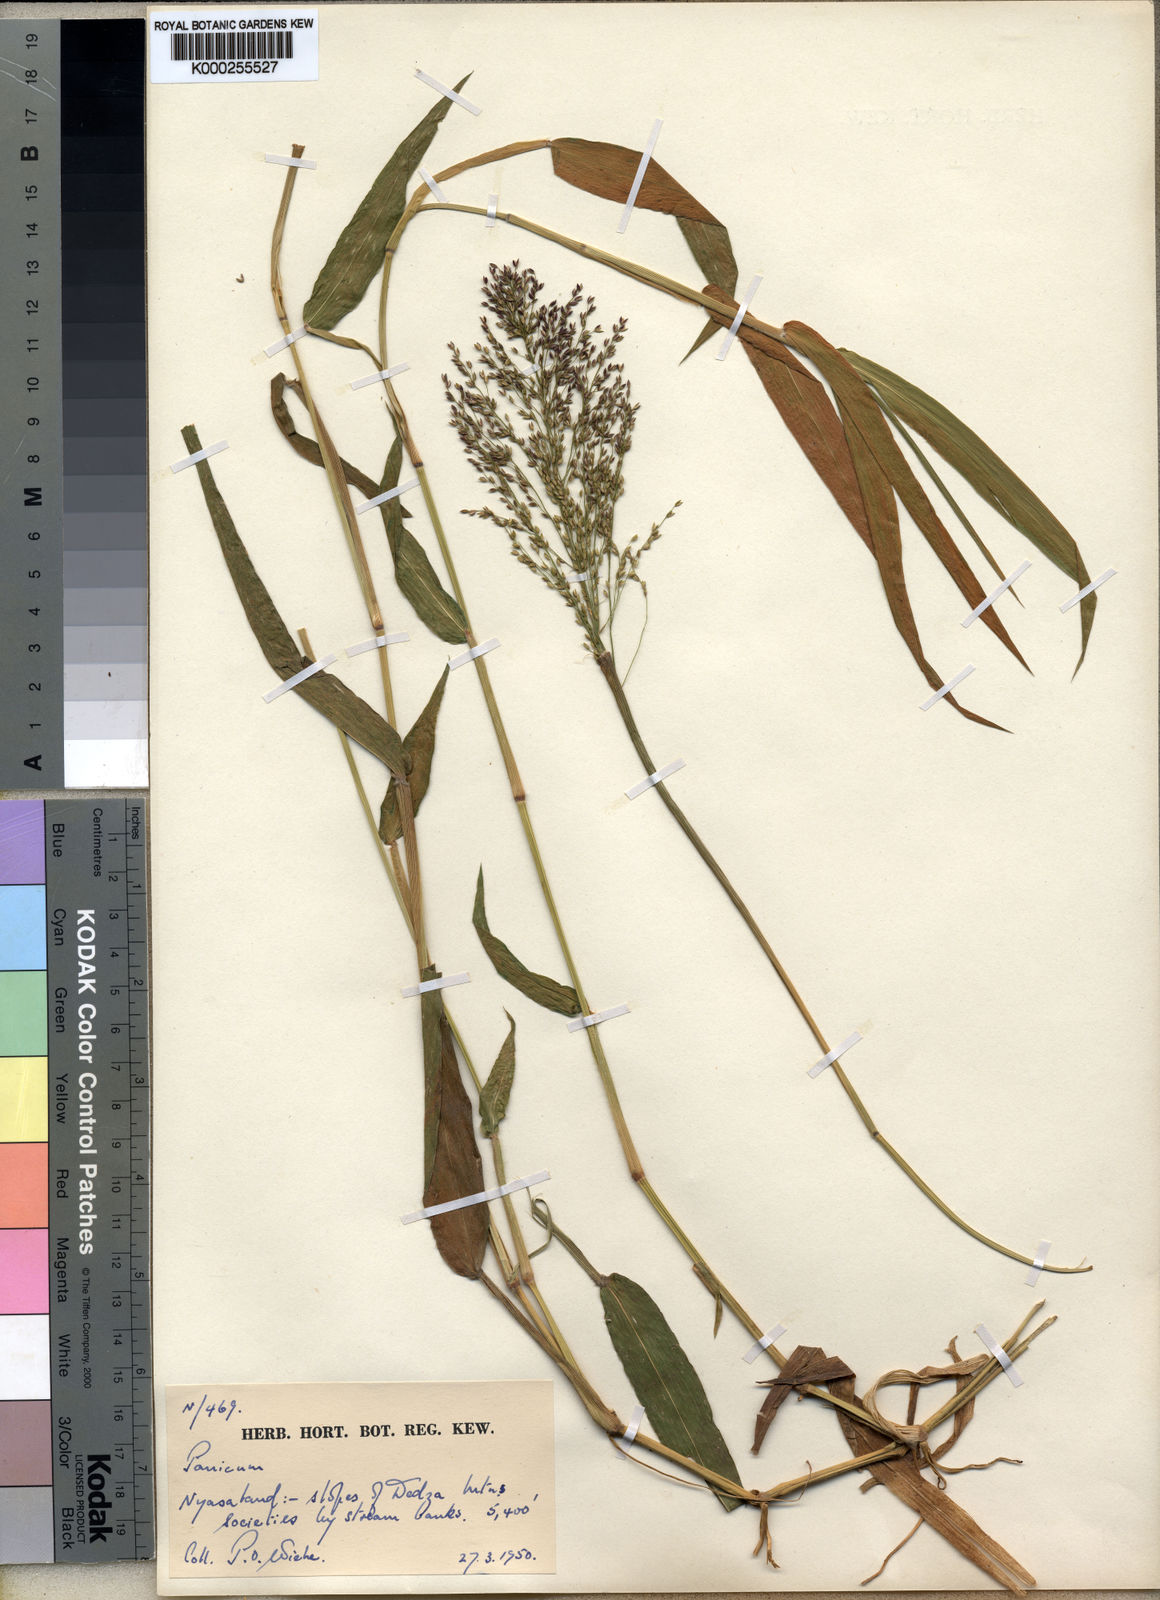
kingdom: Plantae
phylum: Tracheophyta
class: Liliopsida
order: Poales
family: Poaceae
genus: Panicum
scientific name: Panicum wiehei
